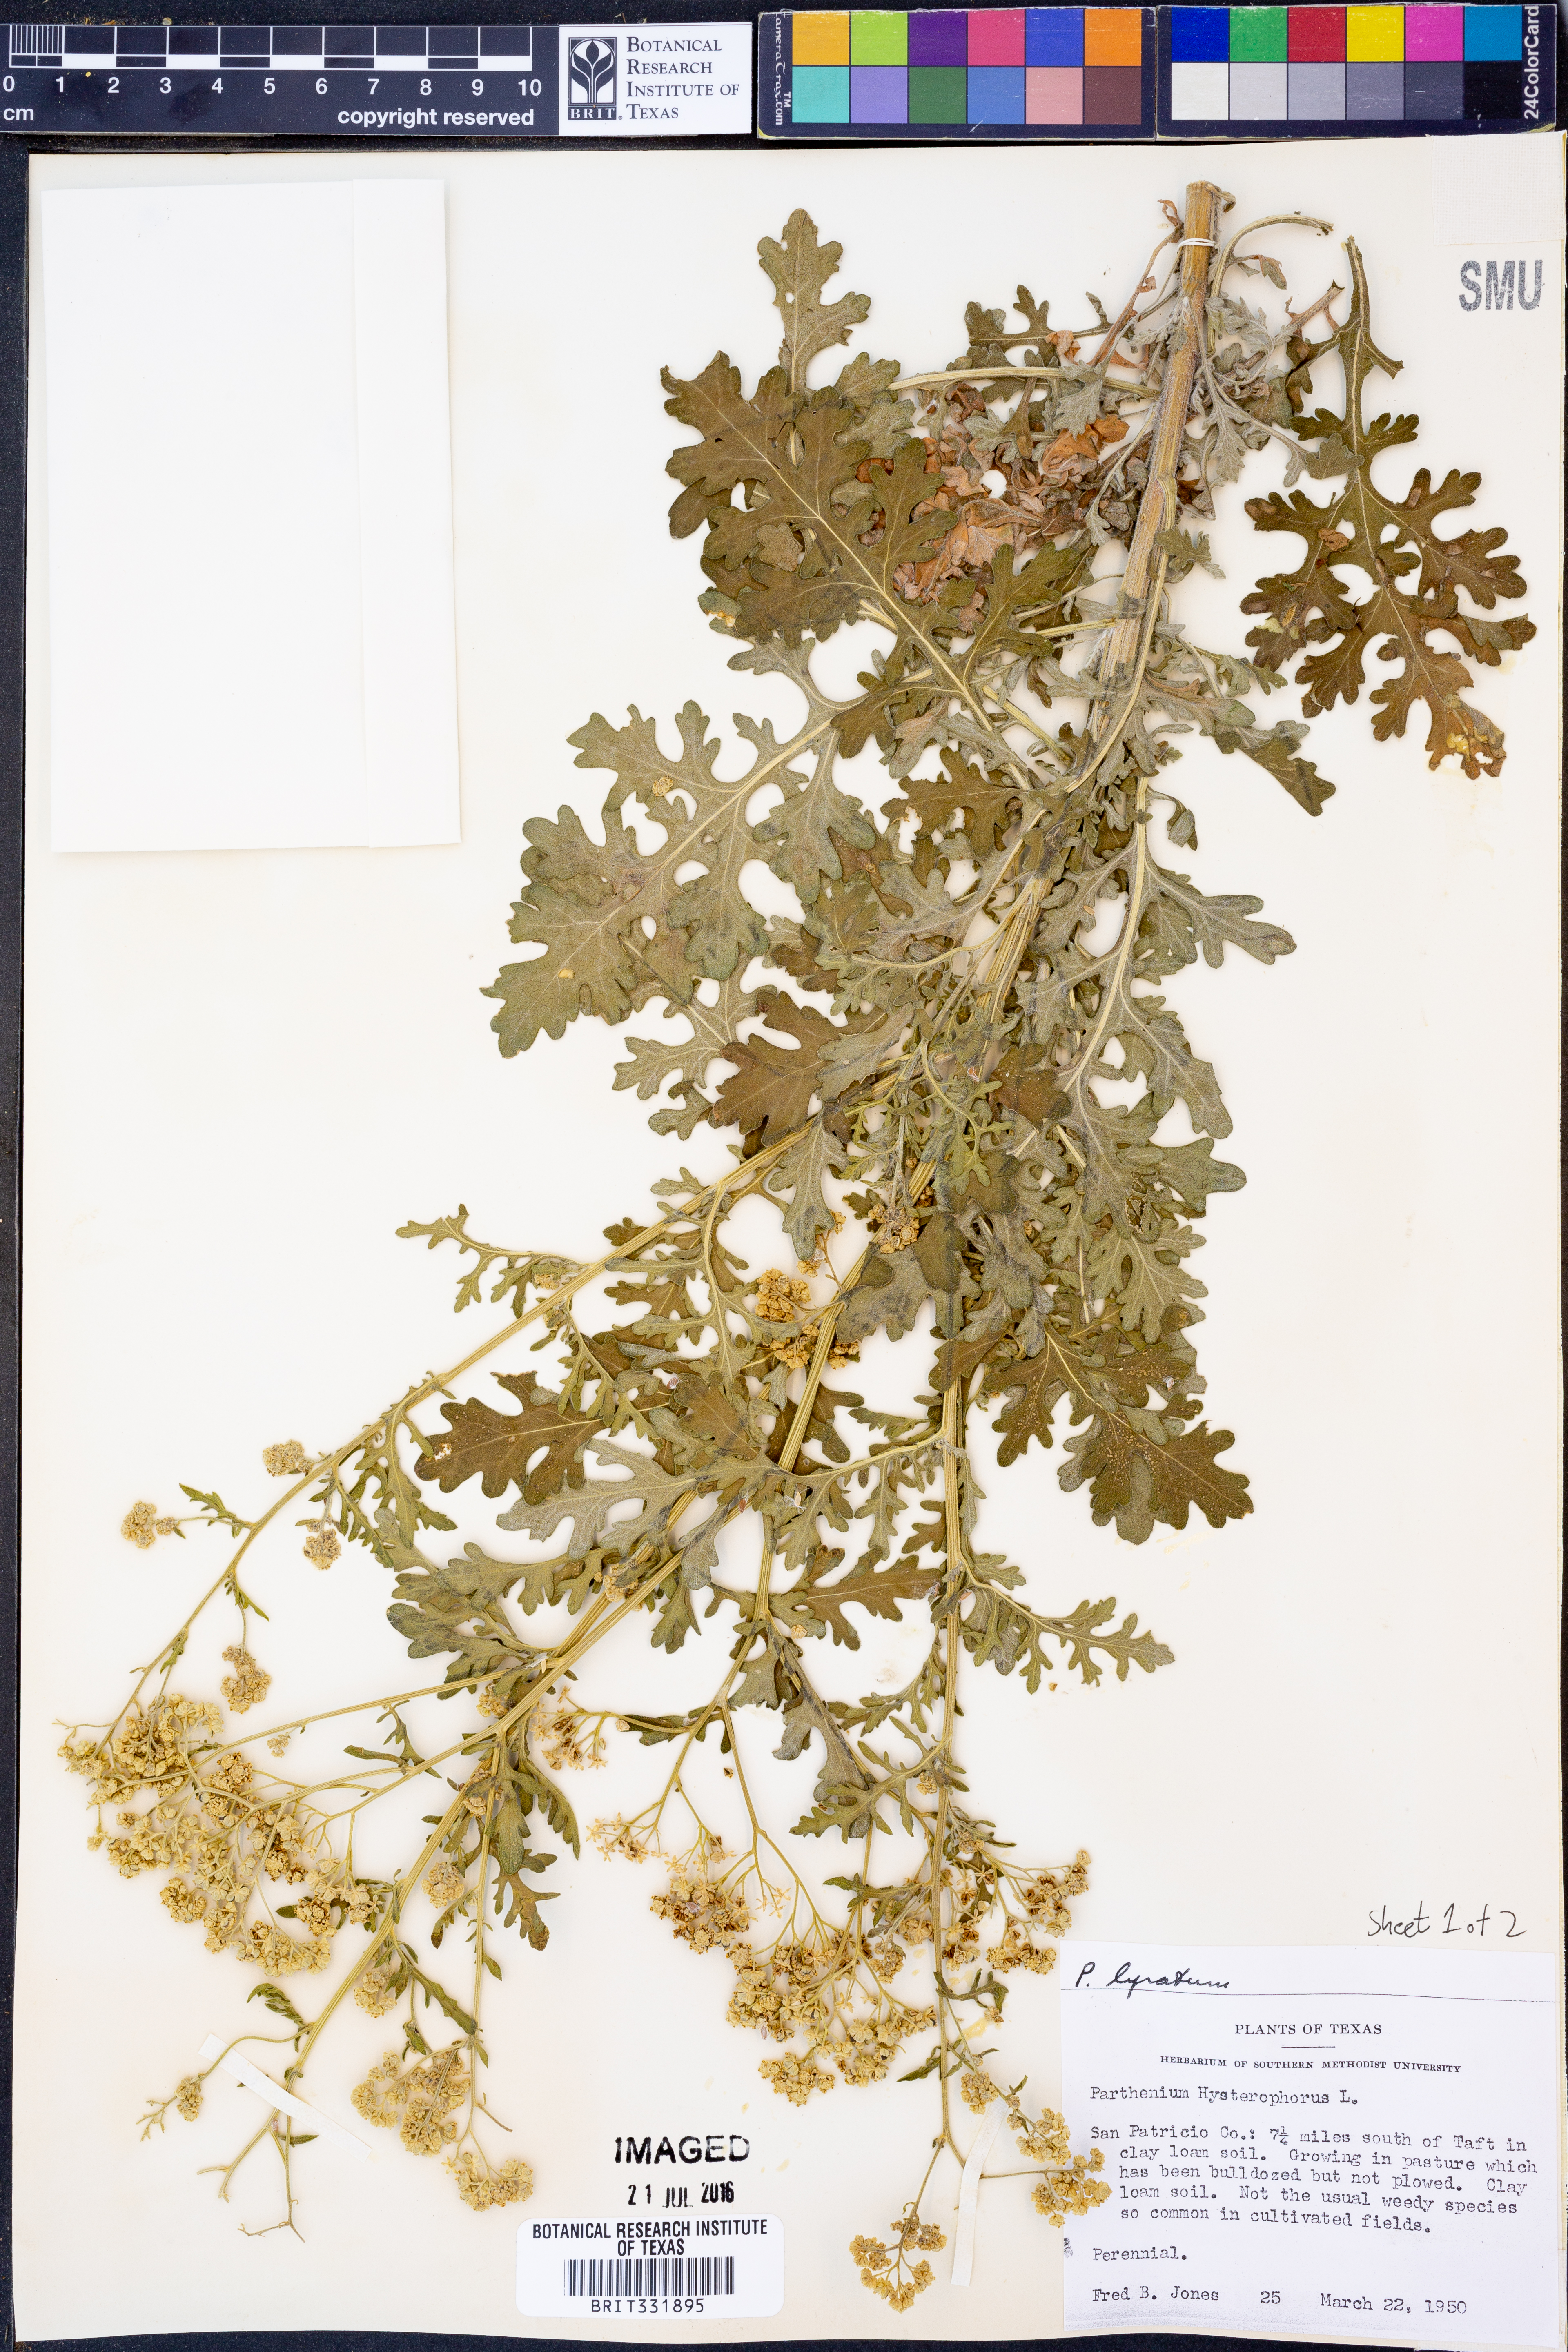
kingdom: Plantae
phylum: Tracheophyta
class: Magnoliopsida
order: Asterales
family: Asteraceae
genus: Parthenium
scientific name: Parthenium hysterophorus
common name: Santa maria feverfew
